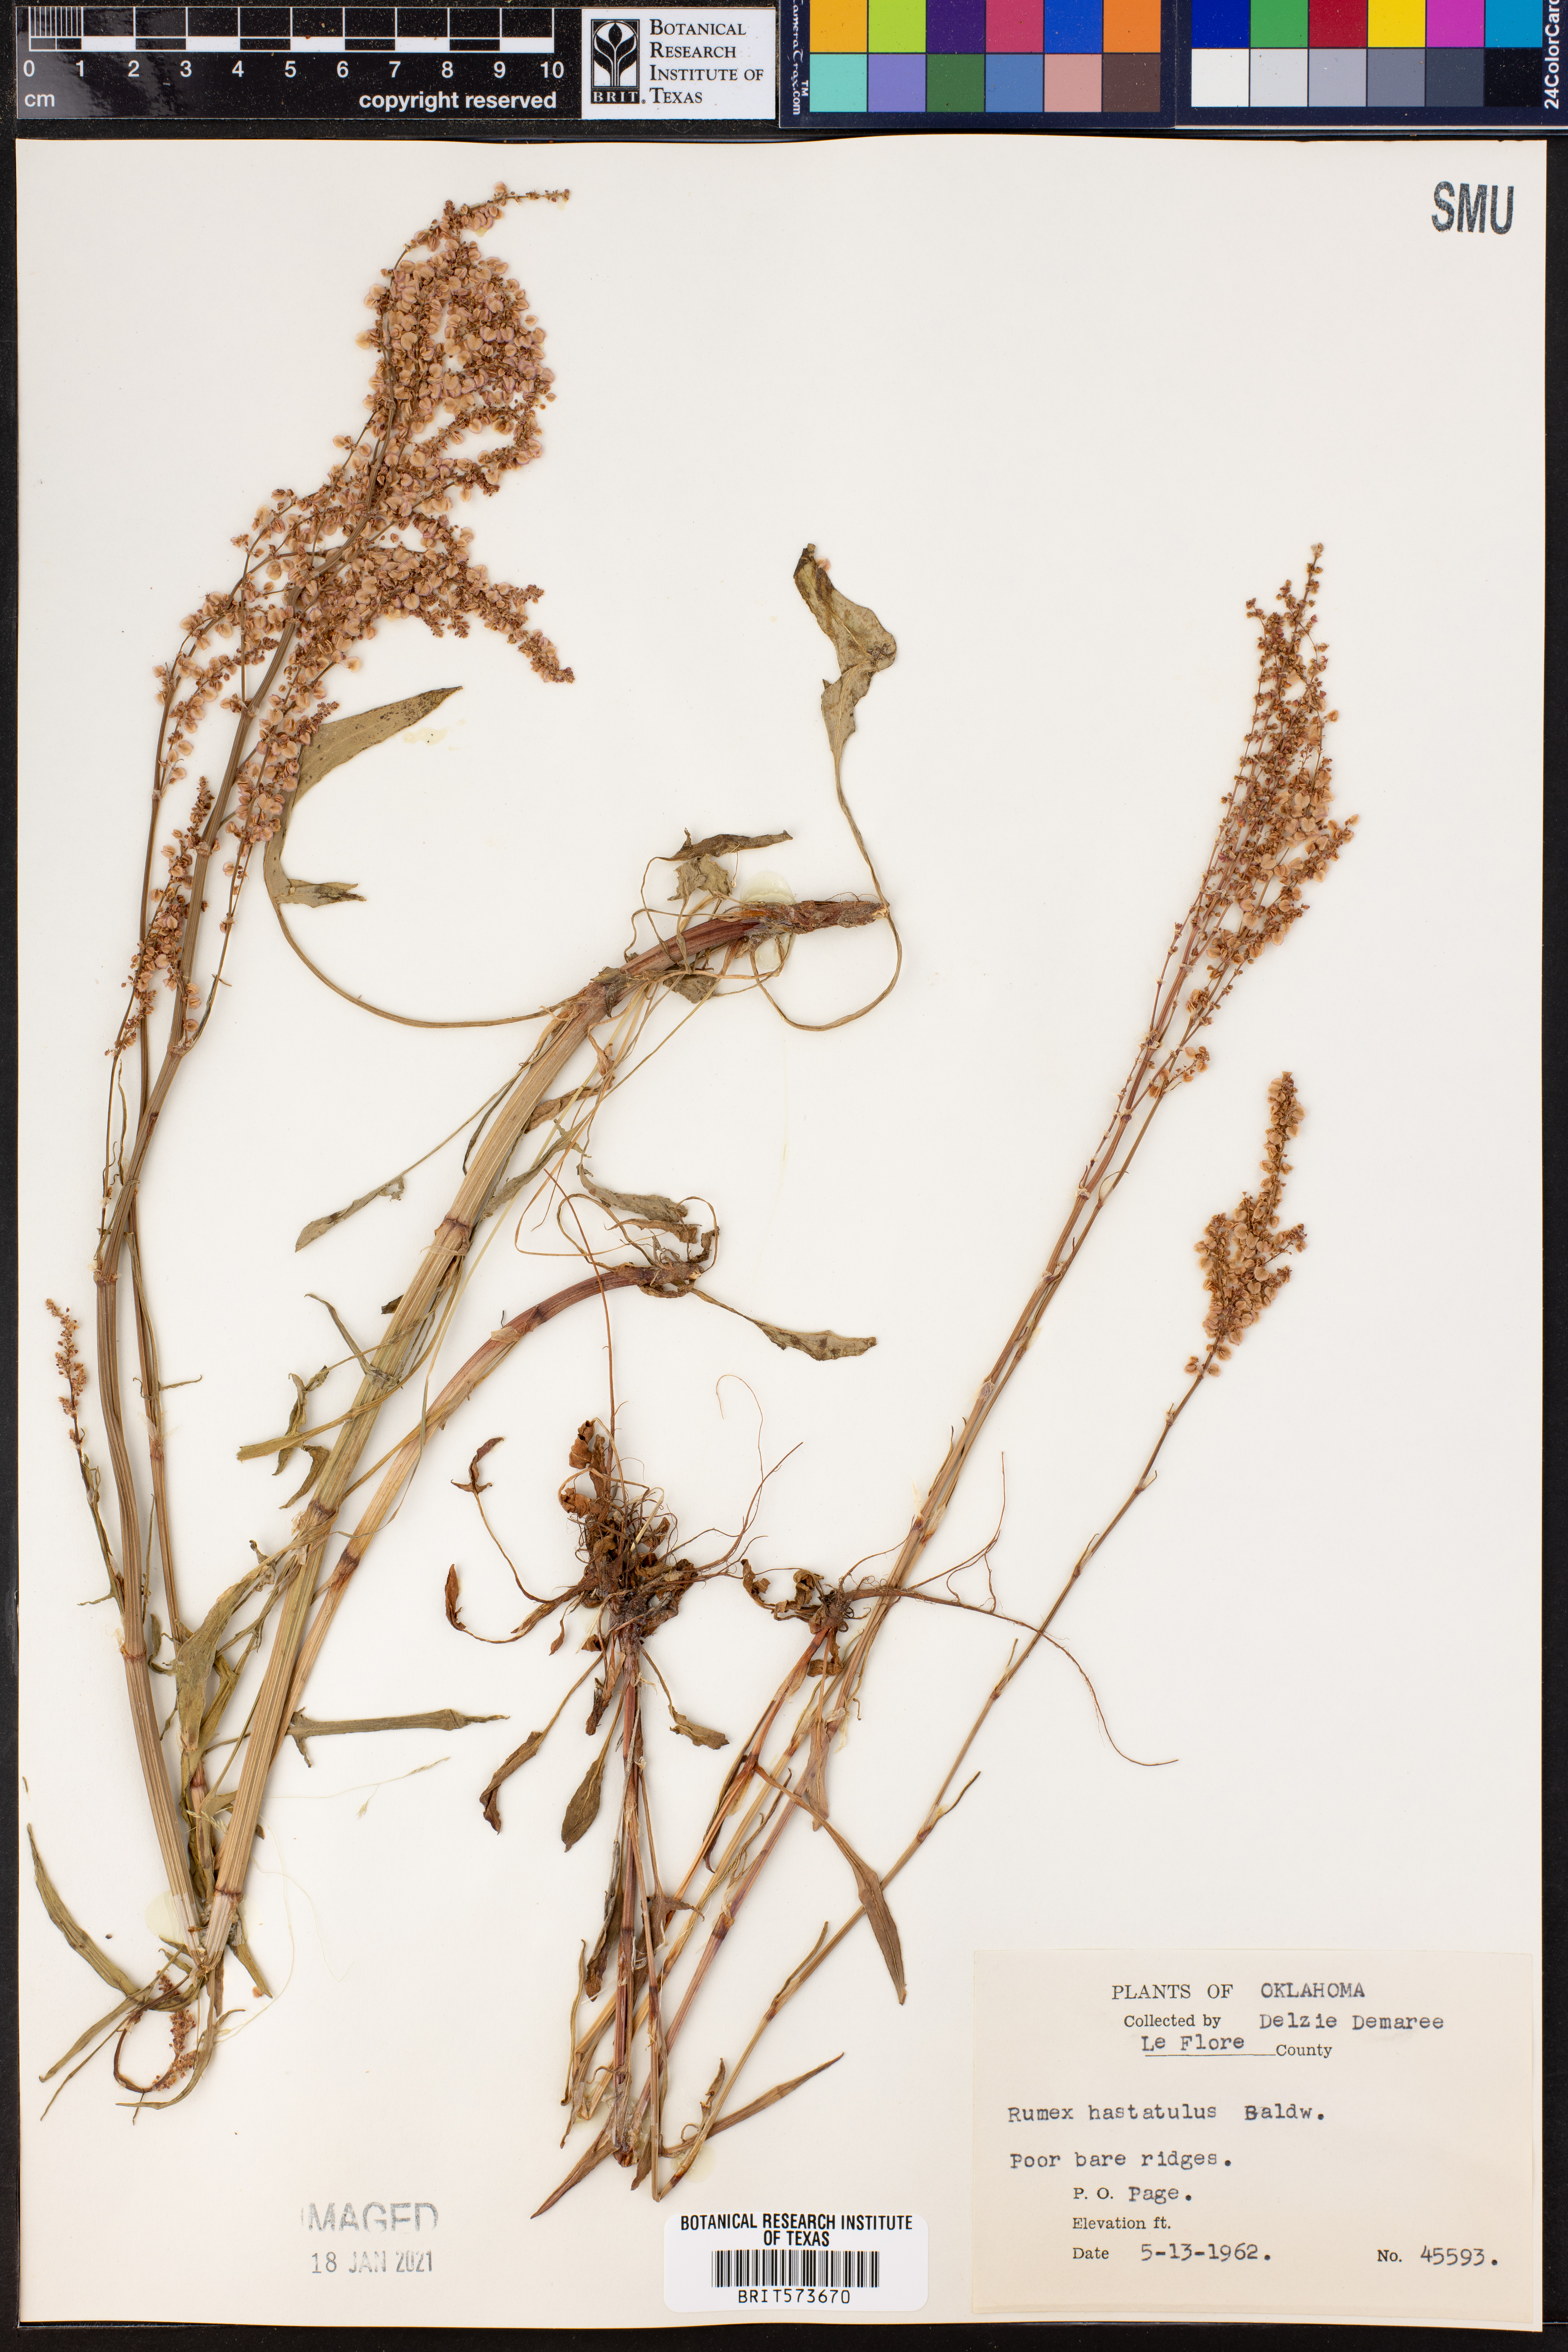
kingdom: Plantae
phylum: Tracheophyta
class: Magnoliopsida
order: Caryophyllales
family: Polygonaceae
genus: Rumex
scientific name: Rumex hastatulus
